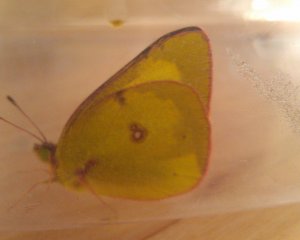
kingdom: Animalia
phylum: Arthropoda
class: Insecta
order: Lepidoptera
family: Pieridae
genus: Colias
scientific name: Colias philodice
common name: Clouded Sulphur
